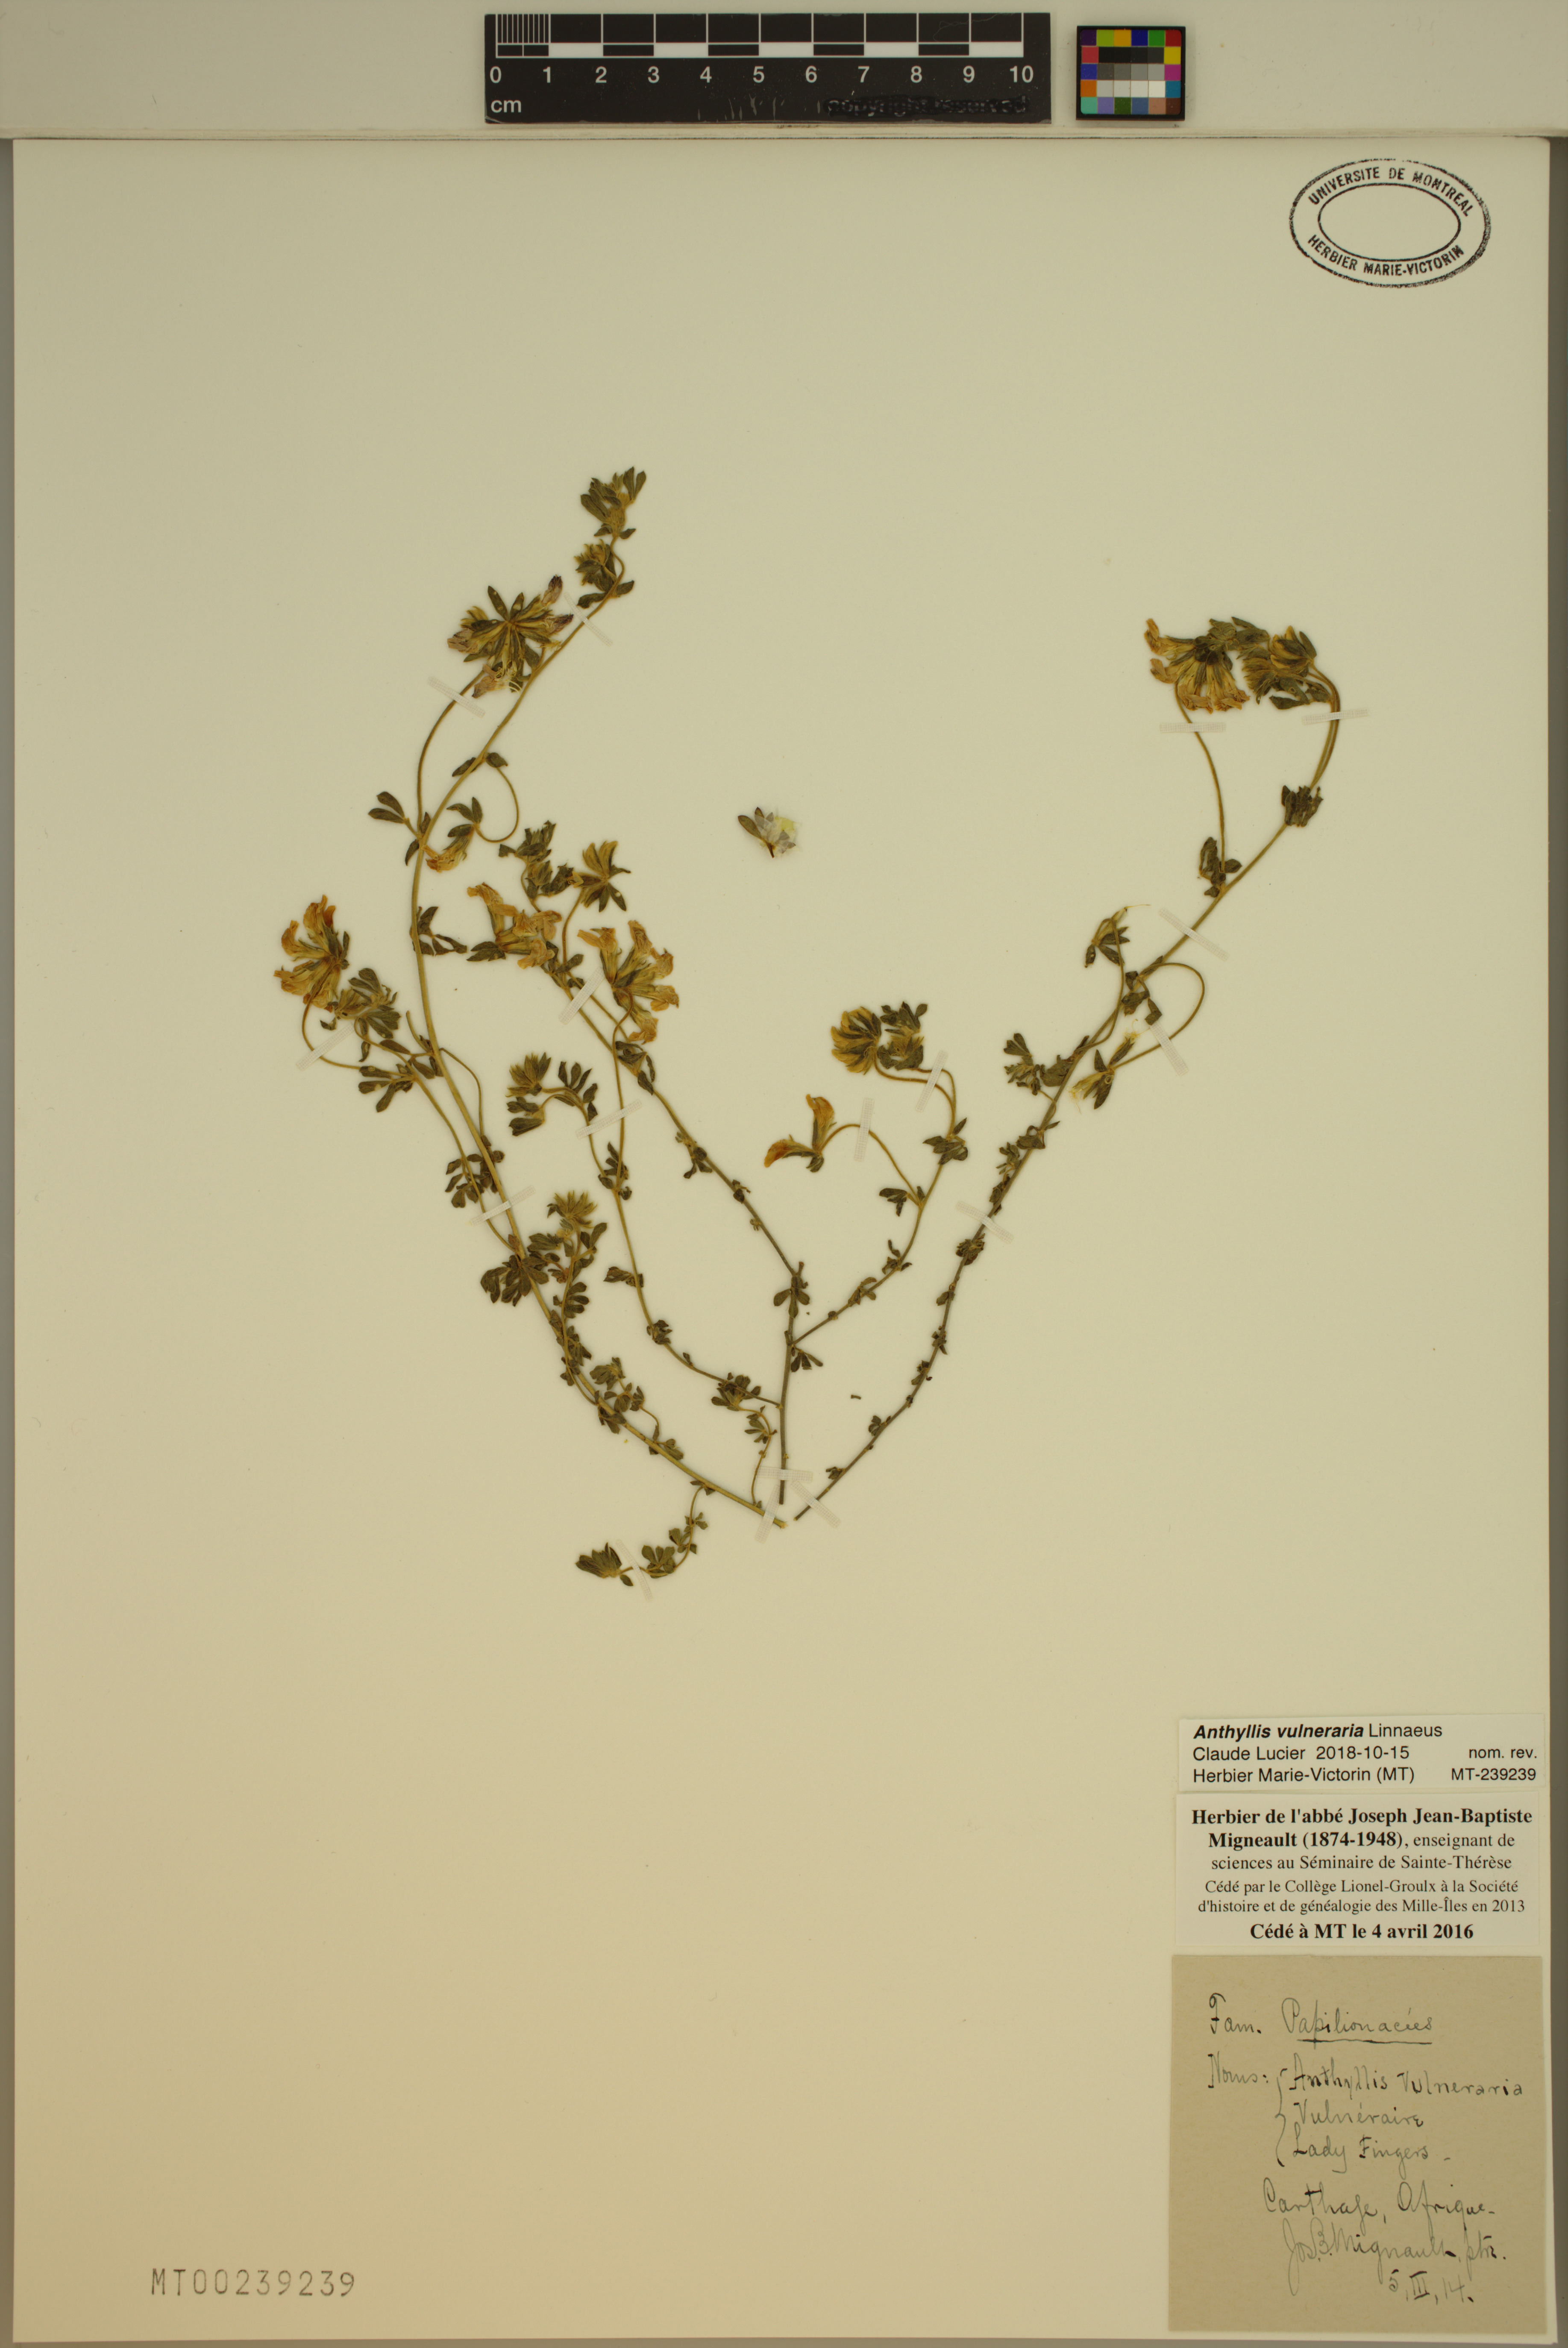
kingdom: Plantae
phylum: Tracheophyta
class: Magnoliopsida
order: Fabales
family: Fabaceae
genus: Anthyllis
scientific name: Anthyllis vulneraria
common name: Kidney vetch
